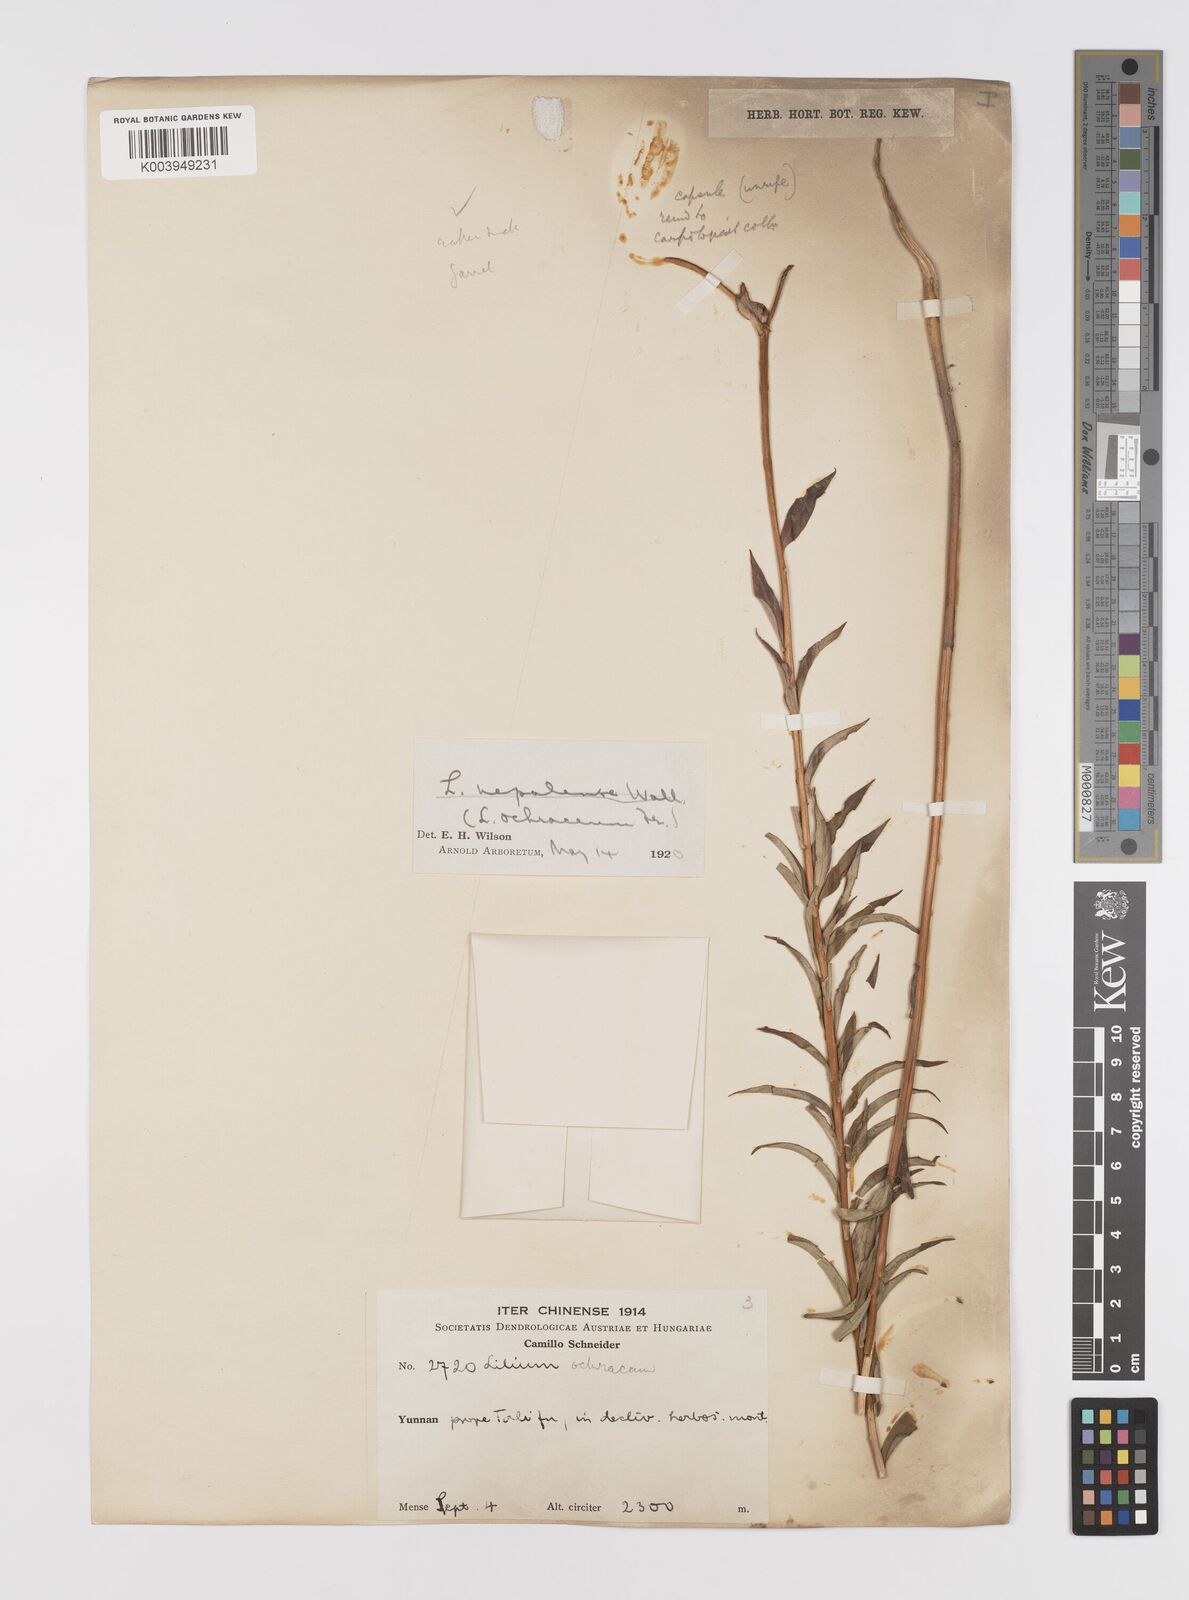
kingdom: Plantae
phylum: Tracheophyta
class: Liliopsida
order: Liliales
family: Liliaceae
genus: Lilium
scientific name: Lilium primulinum
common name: Ochre lily
